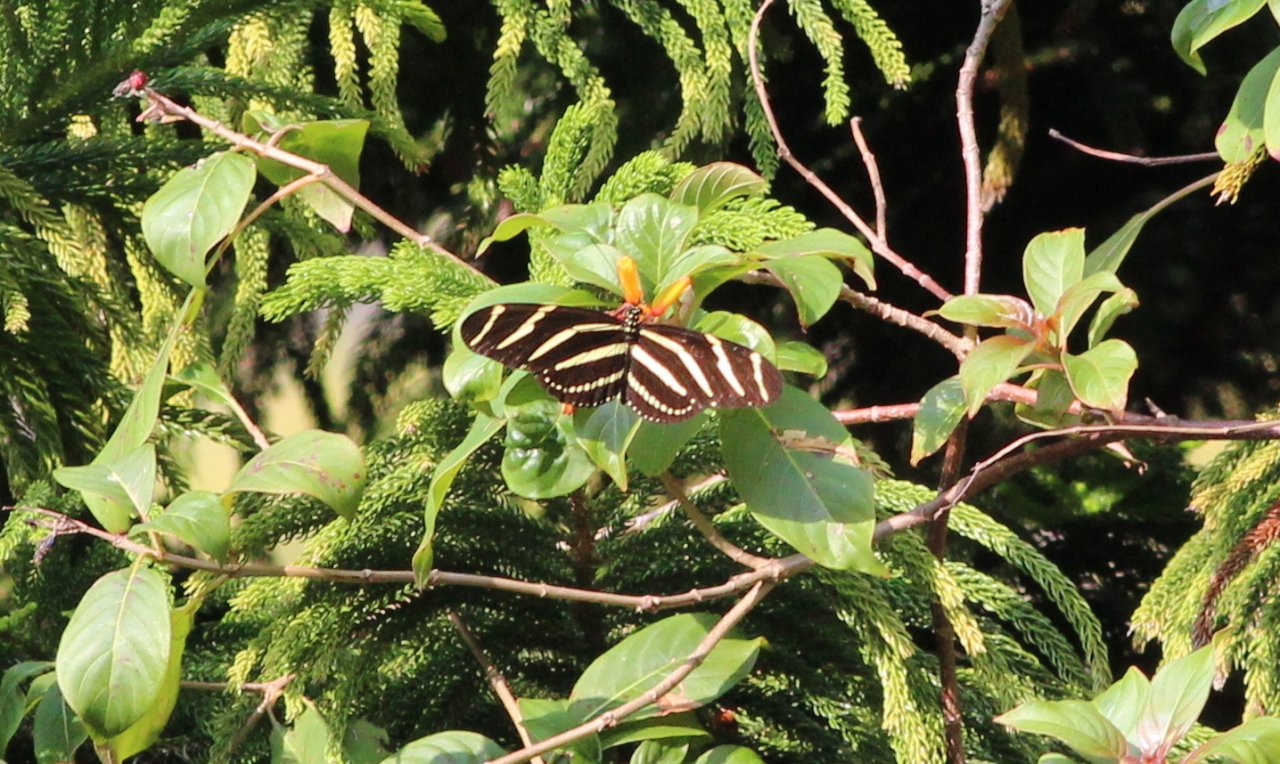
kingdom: Animalia
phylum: Arthropoda
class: Insecta
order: Lepidoptera
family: Nymphalidae
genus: Heliconius
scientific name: Heliconius charithonia
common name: Zebra Longwing
